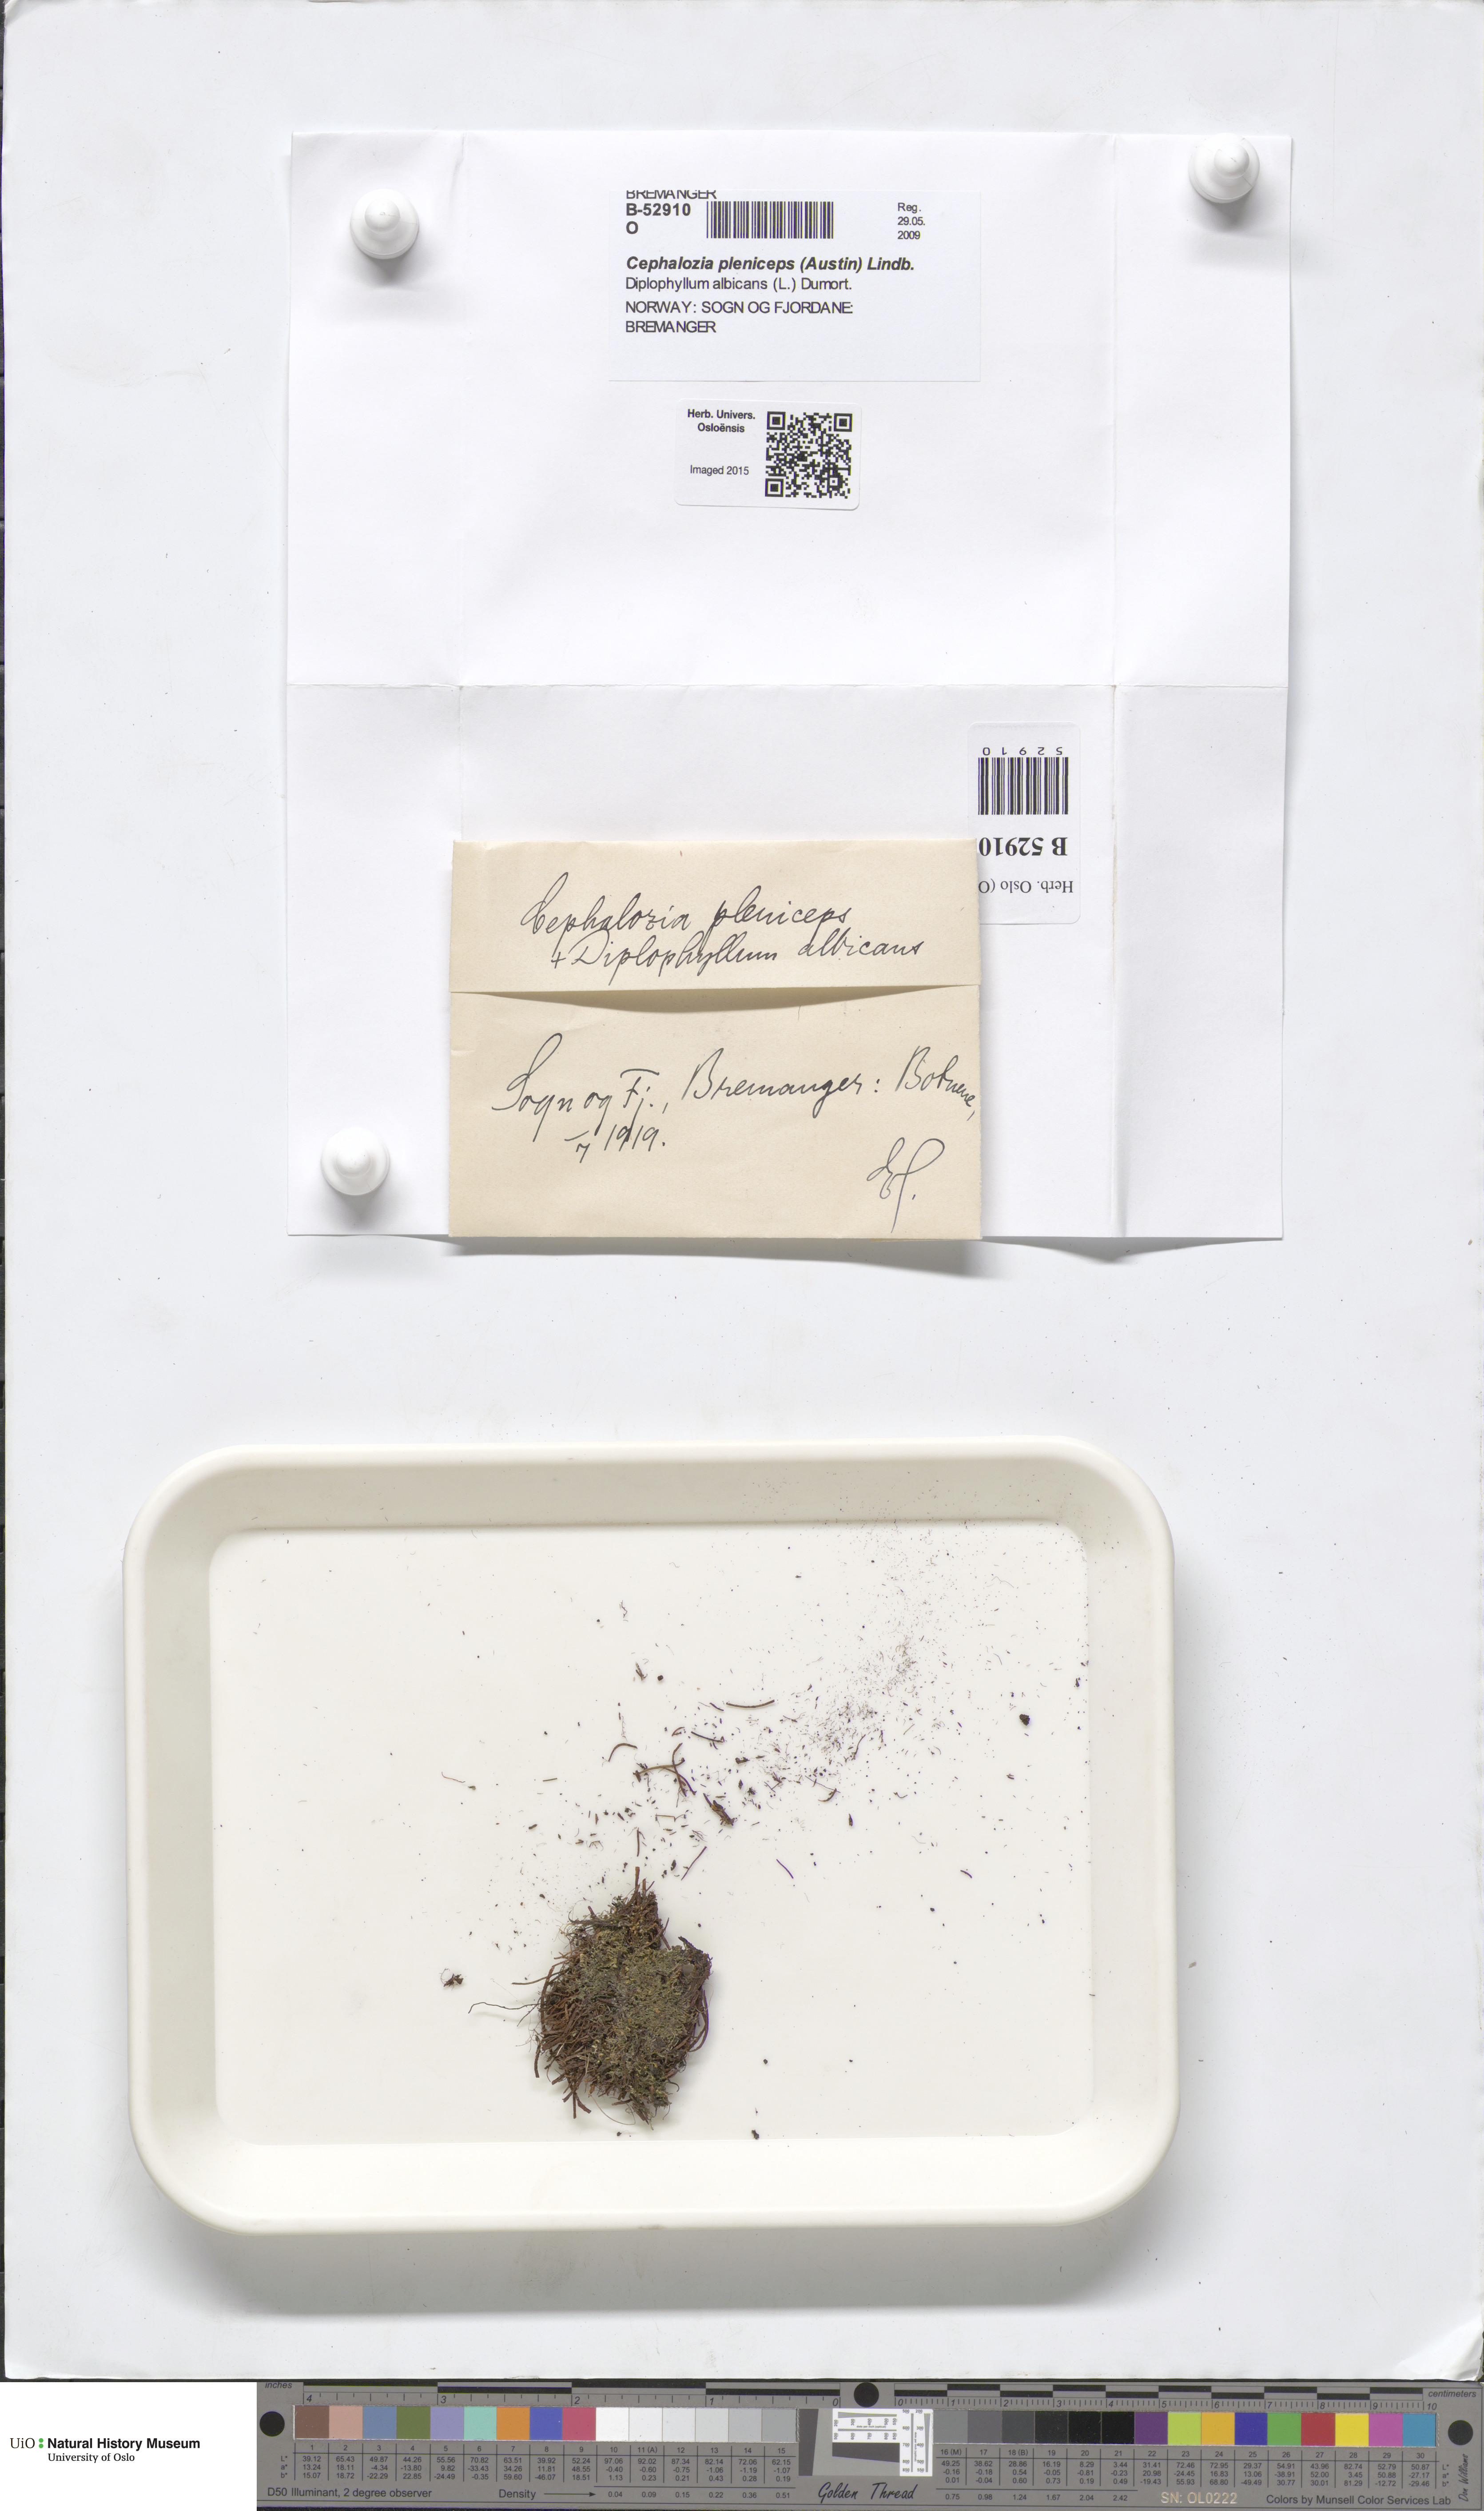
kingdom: Plantae
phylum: Marchantiophyta
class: Jungermanniopsida
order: Jungermanniales
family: Cephaloziaceae
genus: Fuscocephaloziopsis
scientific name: Fuscocephaloziopsis pleniceps
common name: Blunt pincerwort
